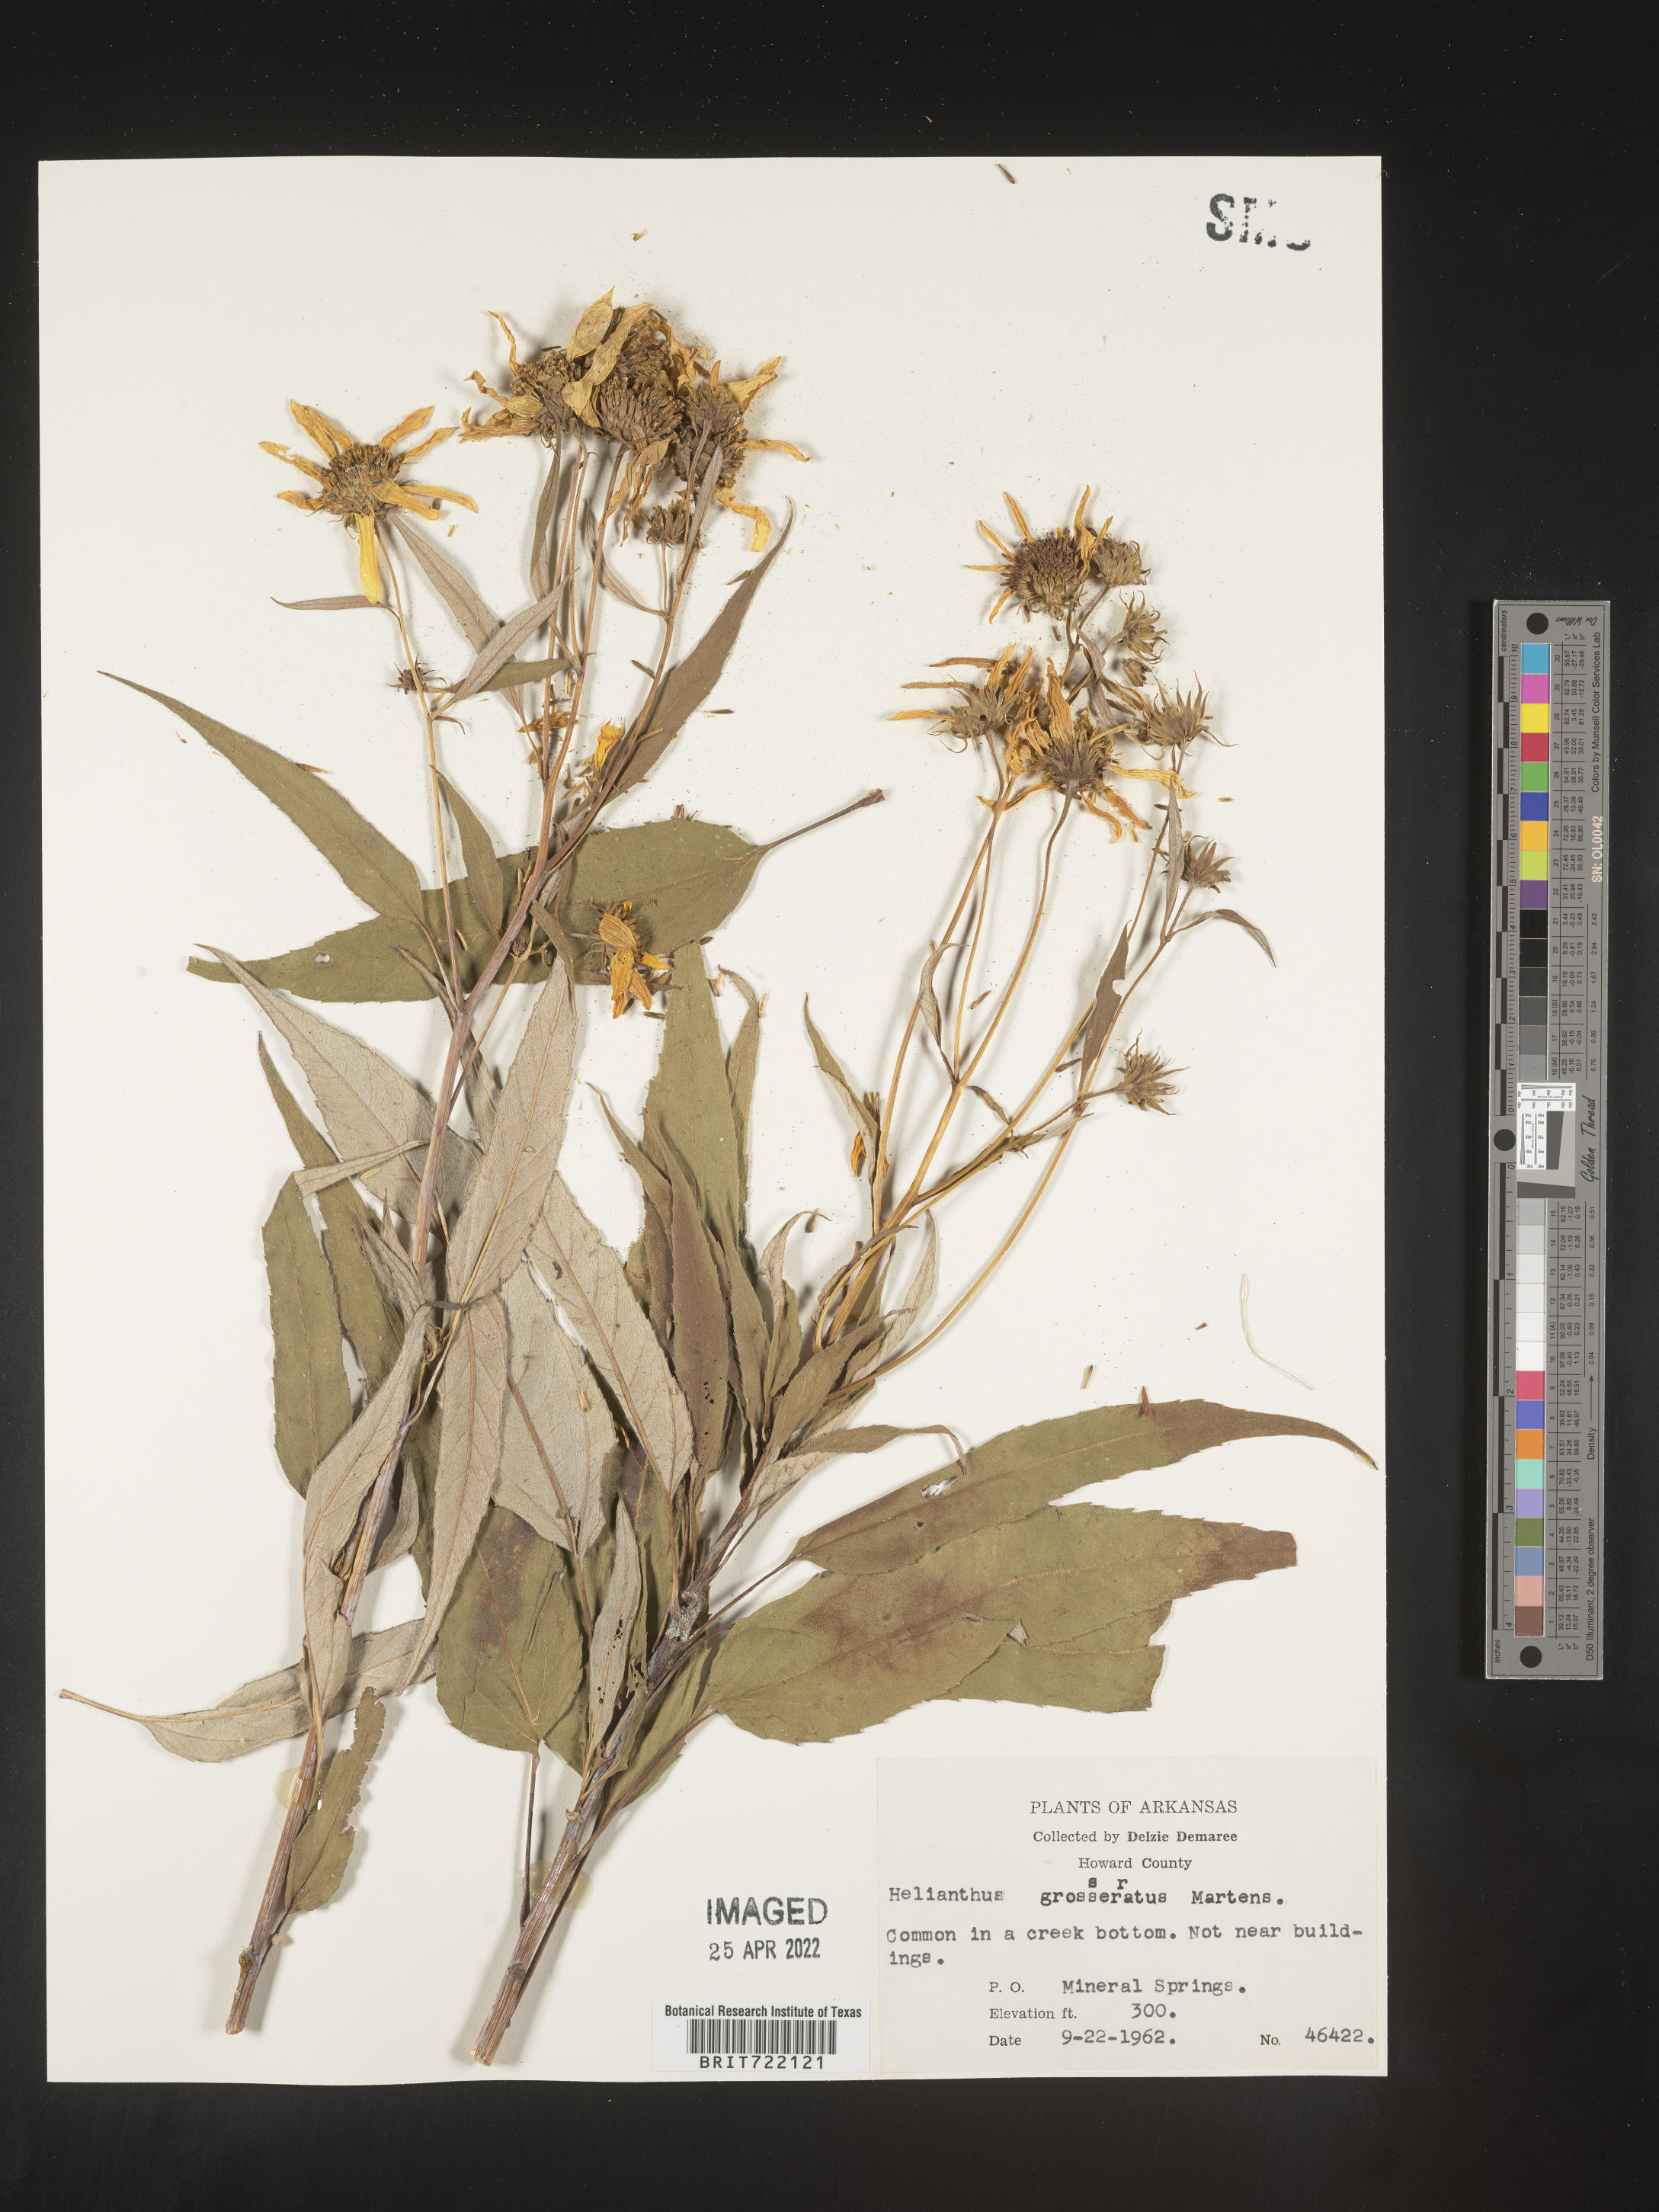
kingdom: Plantae
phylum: Tracheophyta
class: Magnoliopsida
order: Asterales
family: Asteraceae
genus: Helianthus
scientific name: Helianthus grosseserratus
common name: Sawtooth sunflower
